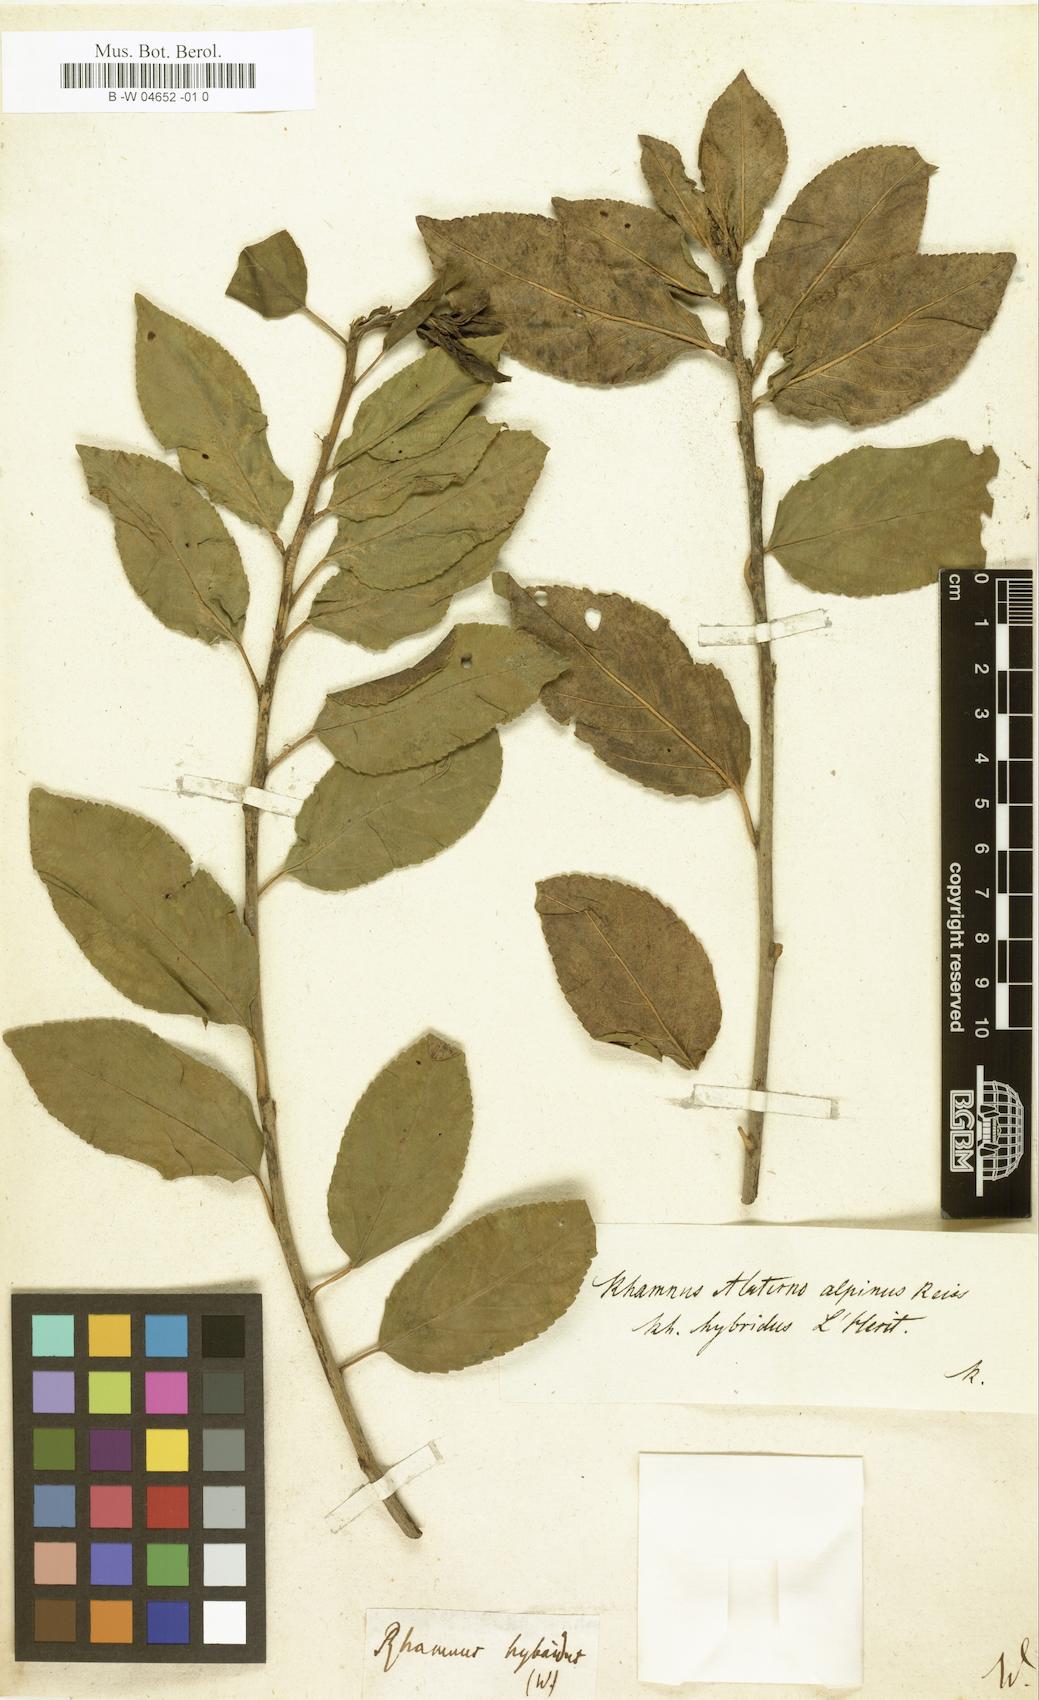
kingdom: Plantae
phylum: Tracheophyta
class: Magnoliopsida
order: Rosales
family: Rhamnaceae
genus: Rhamnus
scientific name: Rhamnus hybrida
